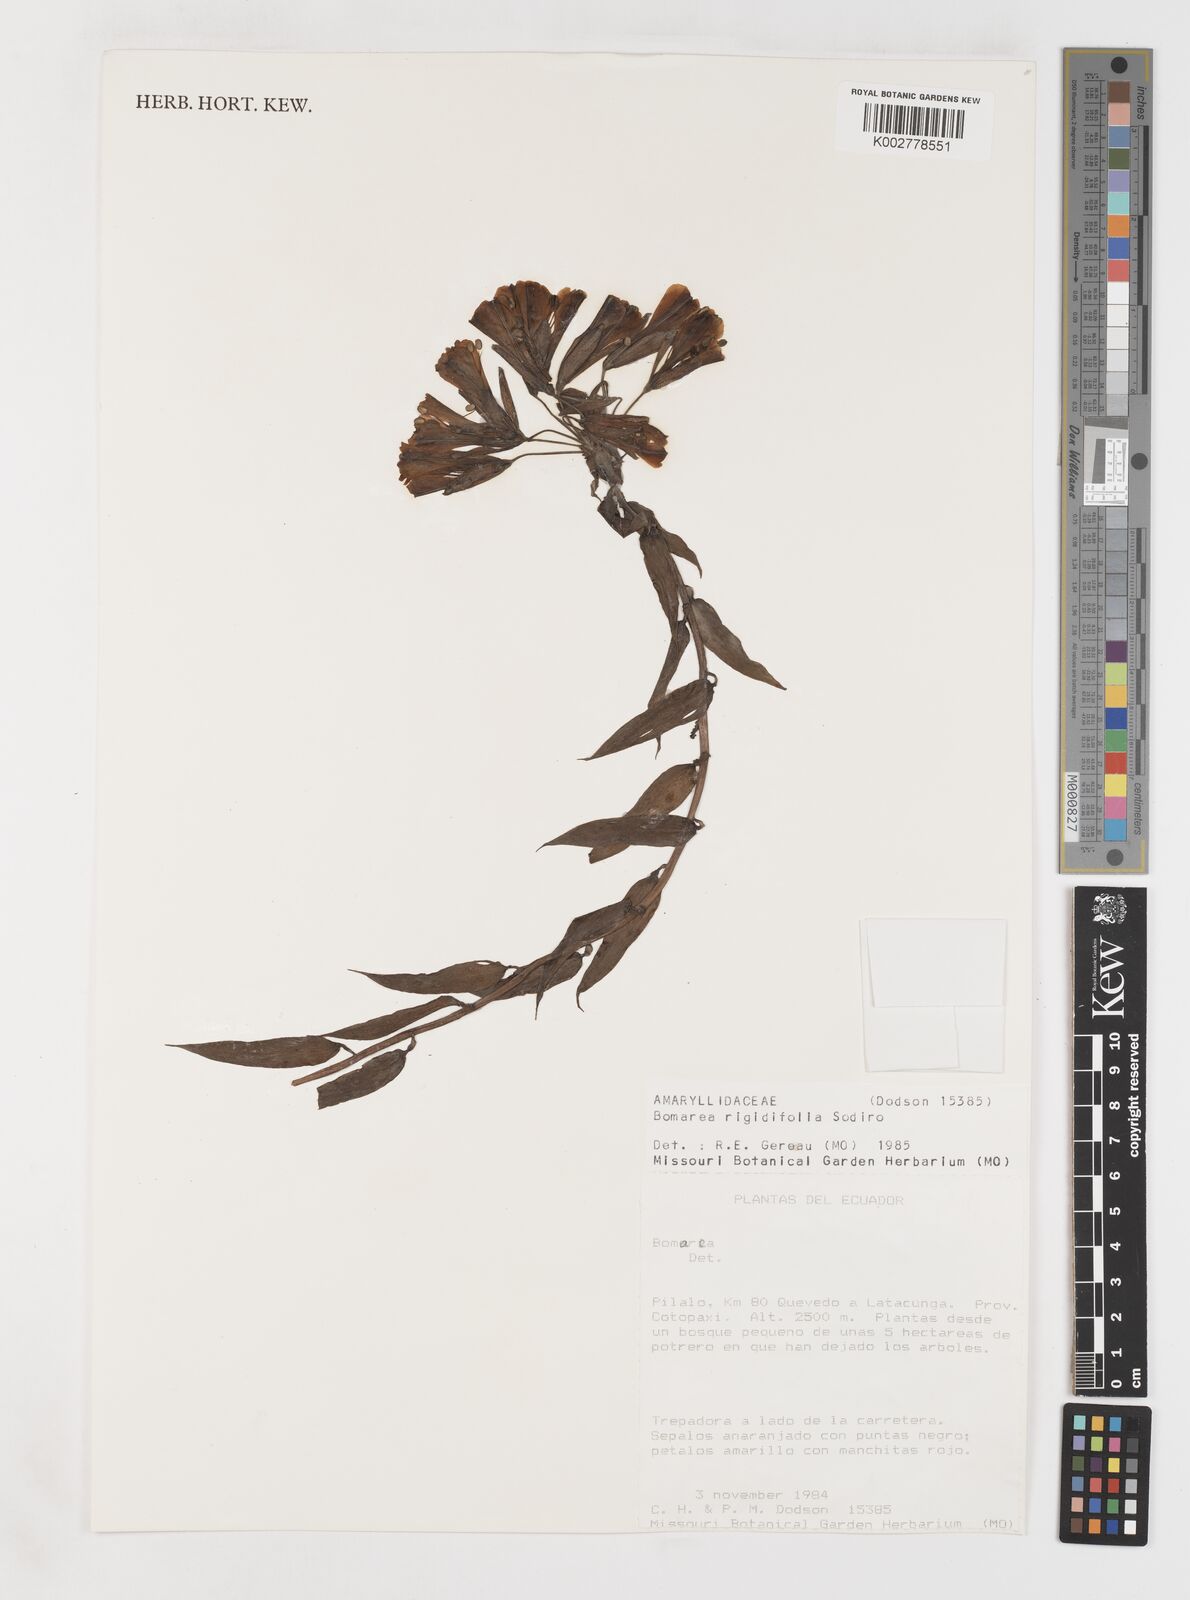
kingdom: Plantae
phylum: Tracheophyta
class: Liliopsida
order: Liliales
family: Alstroemeriaceae
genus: Bomarea
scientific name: Bomarea multiflora
